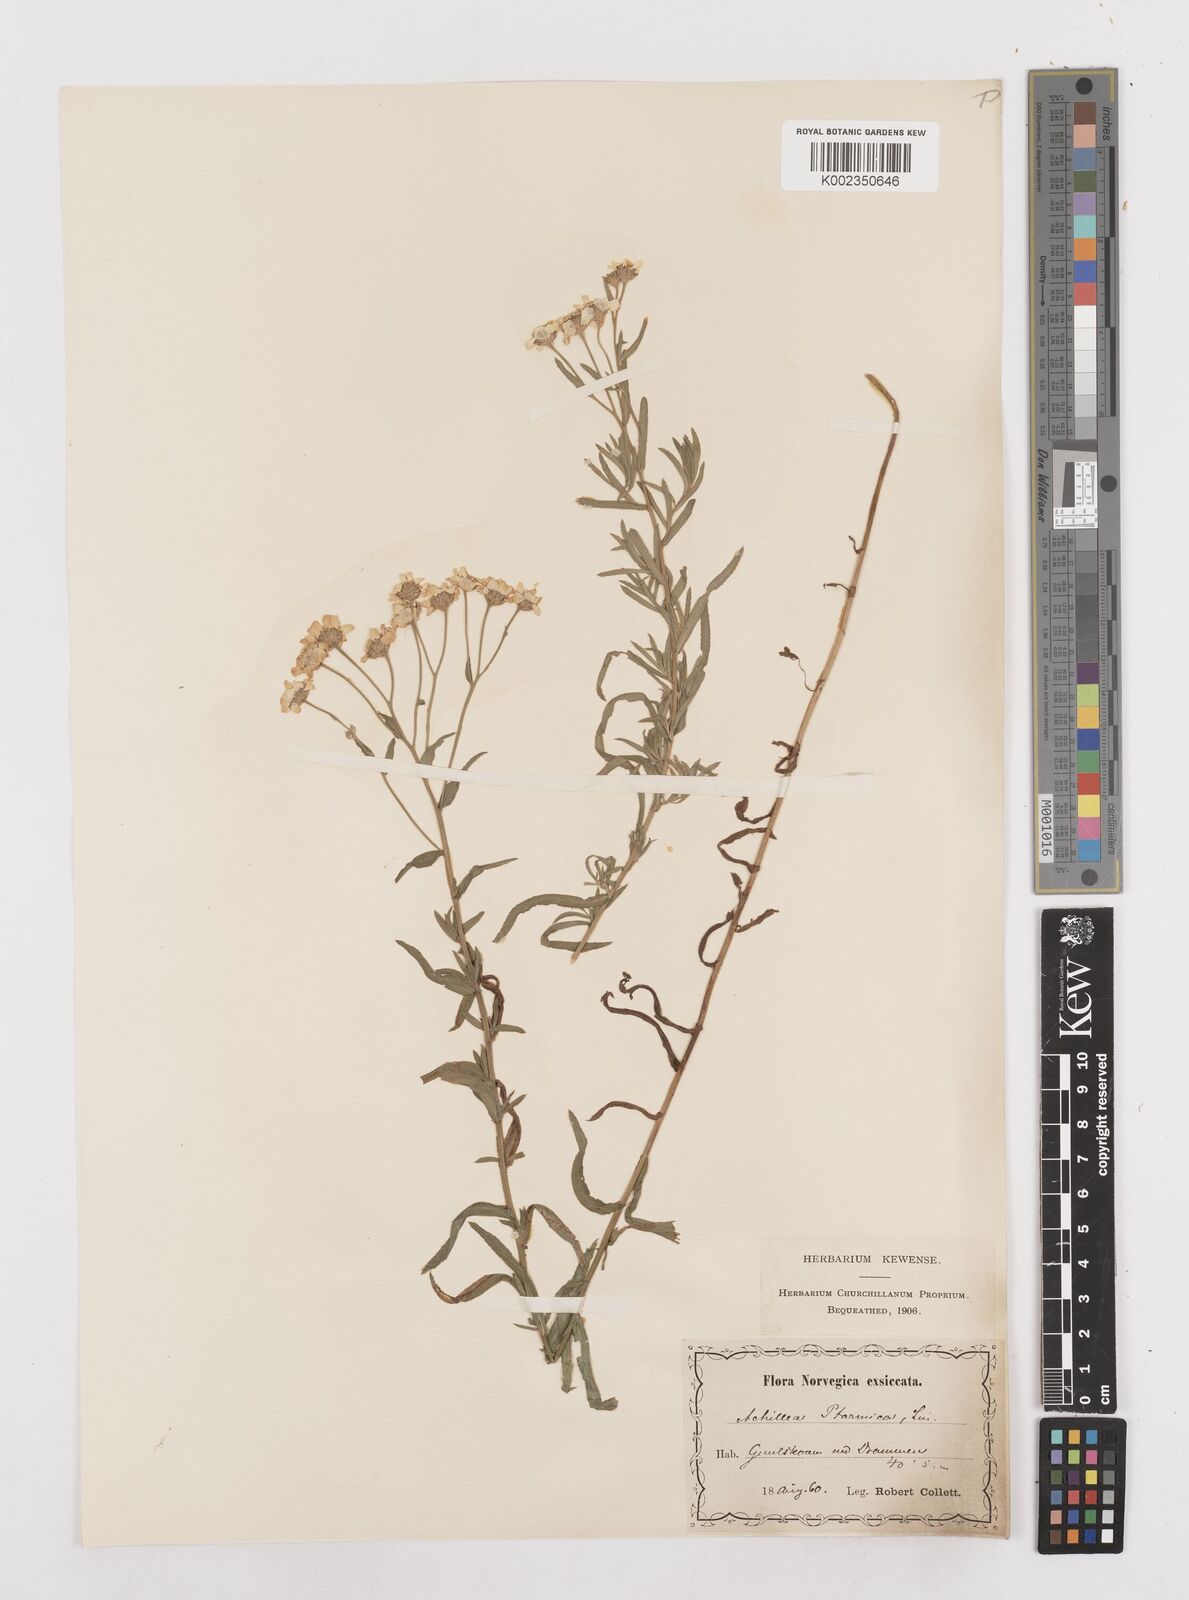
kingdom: Plantae
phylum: Tracheophyta
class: Magnoliopsida
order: Asterales
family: Asteraceae
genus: Achillea
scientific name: Achillea ptarmica
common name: Sneezeweed
